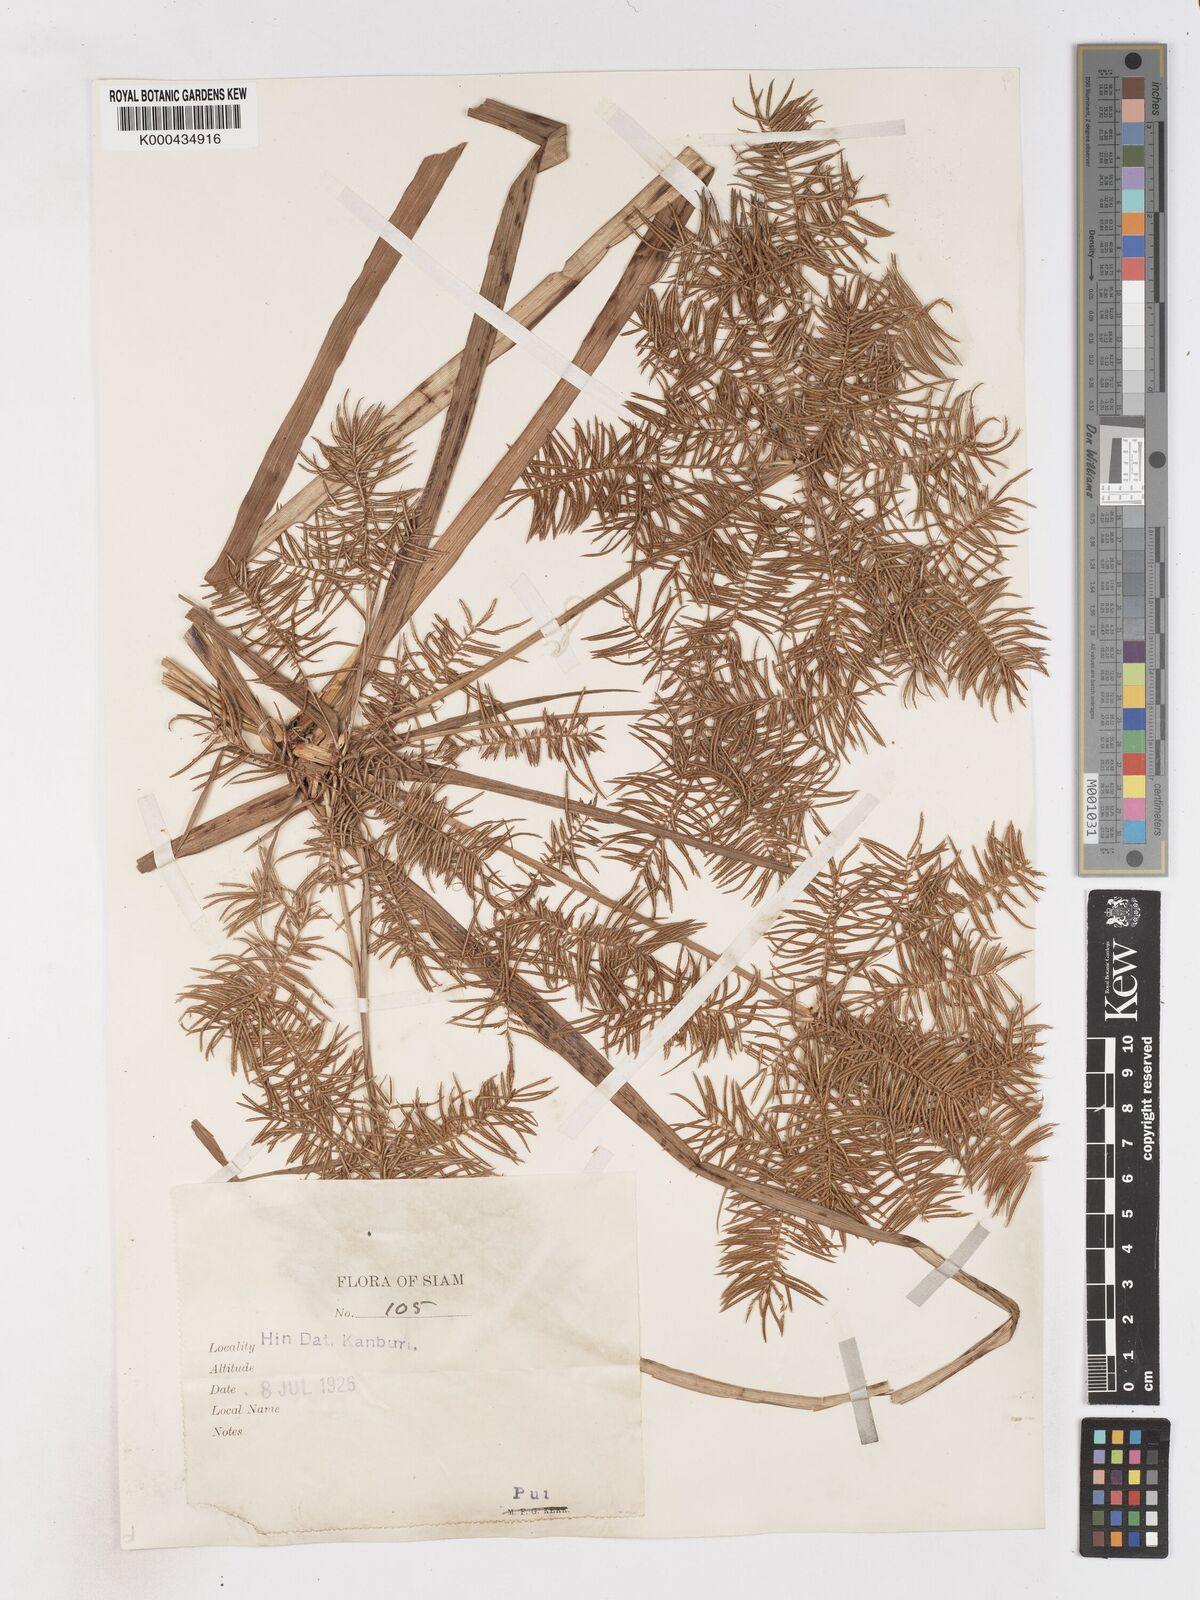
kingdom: Plantae
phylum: Tracheophyta
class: Liliopsida
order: Poales
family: Cyperaceae
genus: Cyperus
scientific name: Cyperus digitatus
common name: Finger flatsedge
